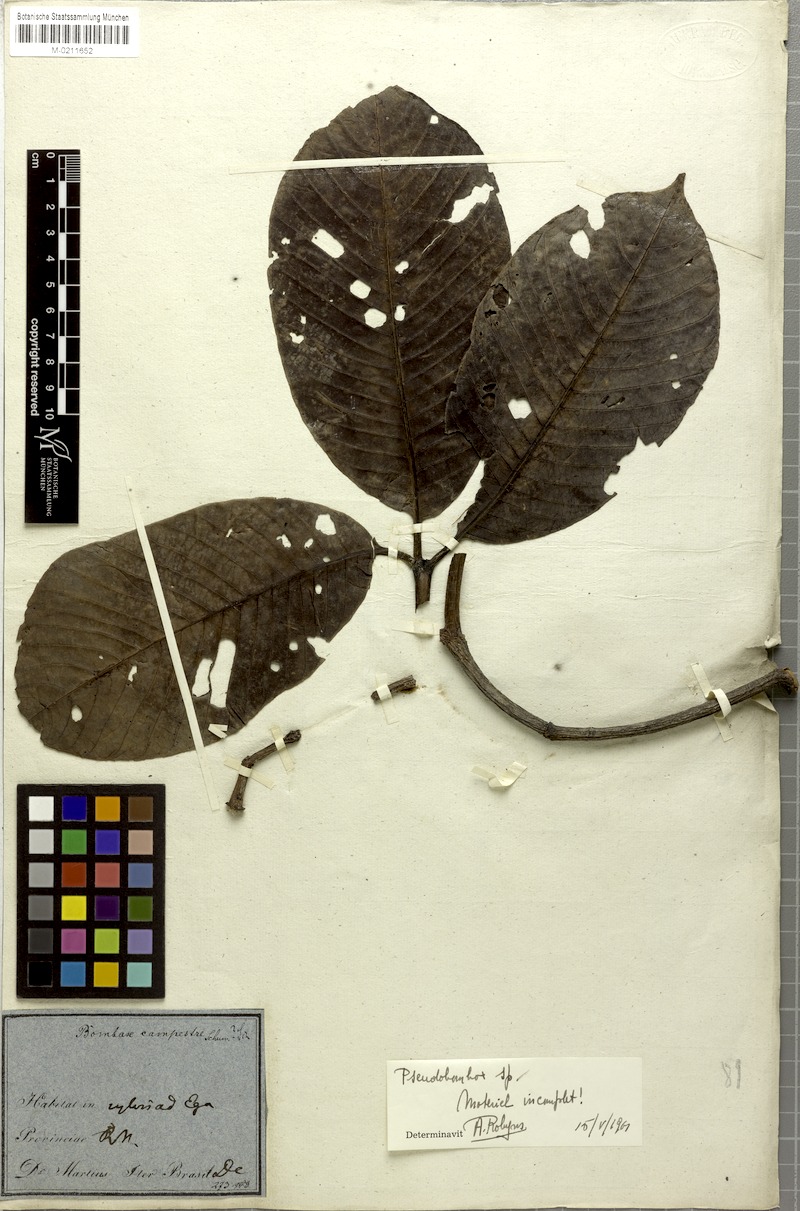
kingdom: Plantae
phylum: Tracheophyta
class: Magnoliopsida
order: Gentianales
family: Apocynaceae
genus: Couma
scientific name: Couma
